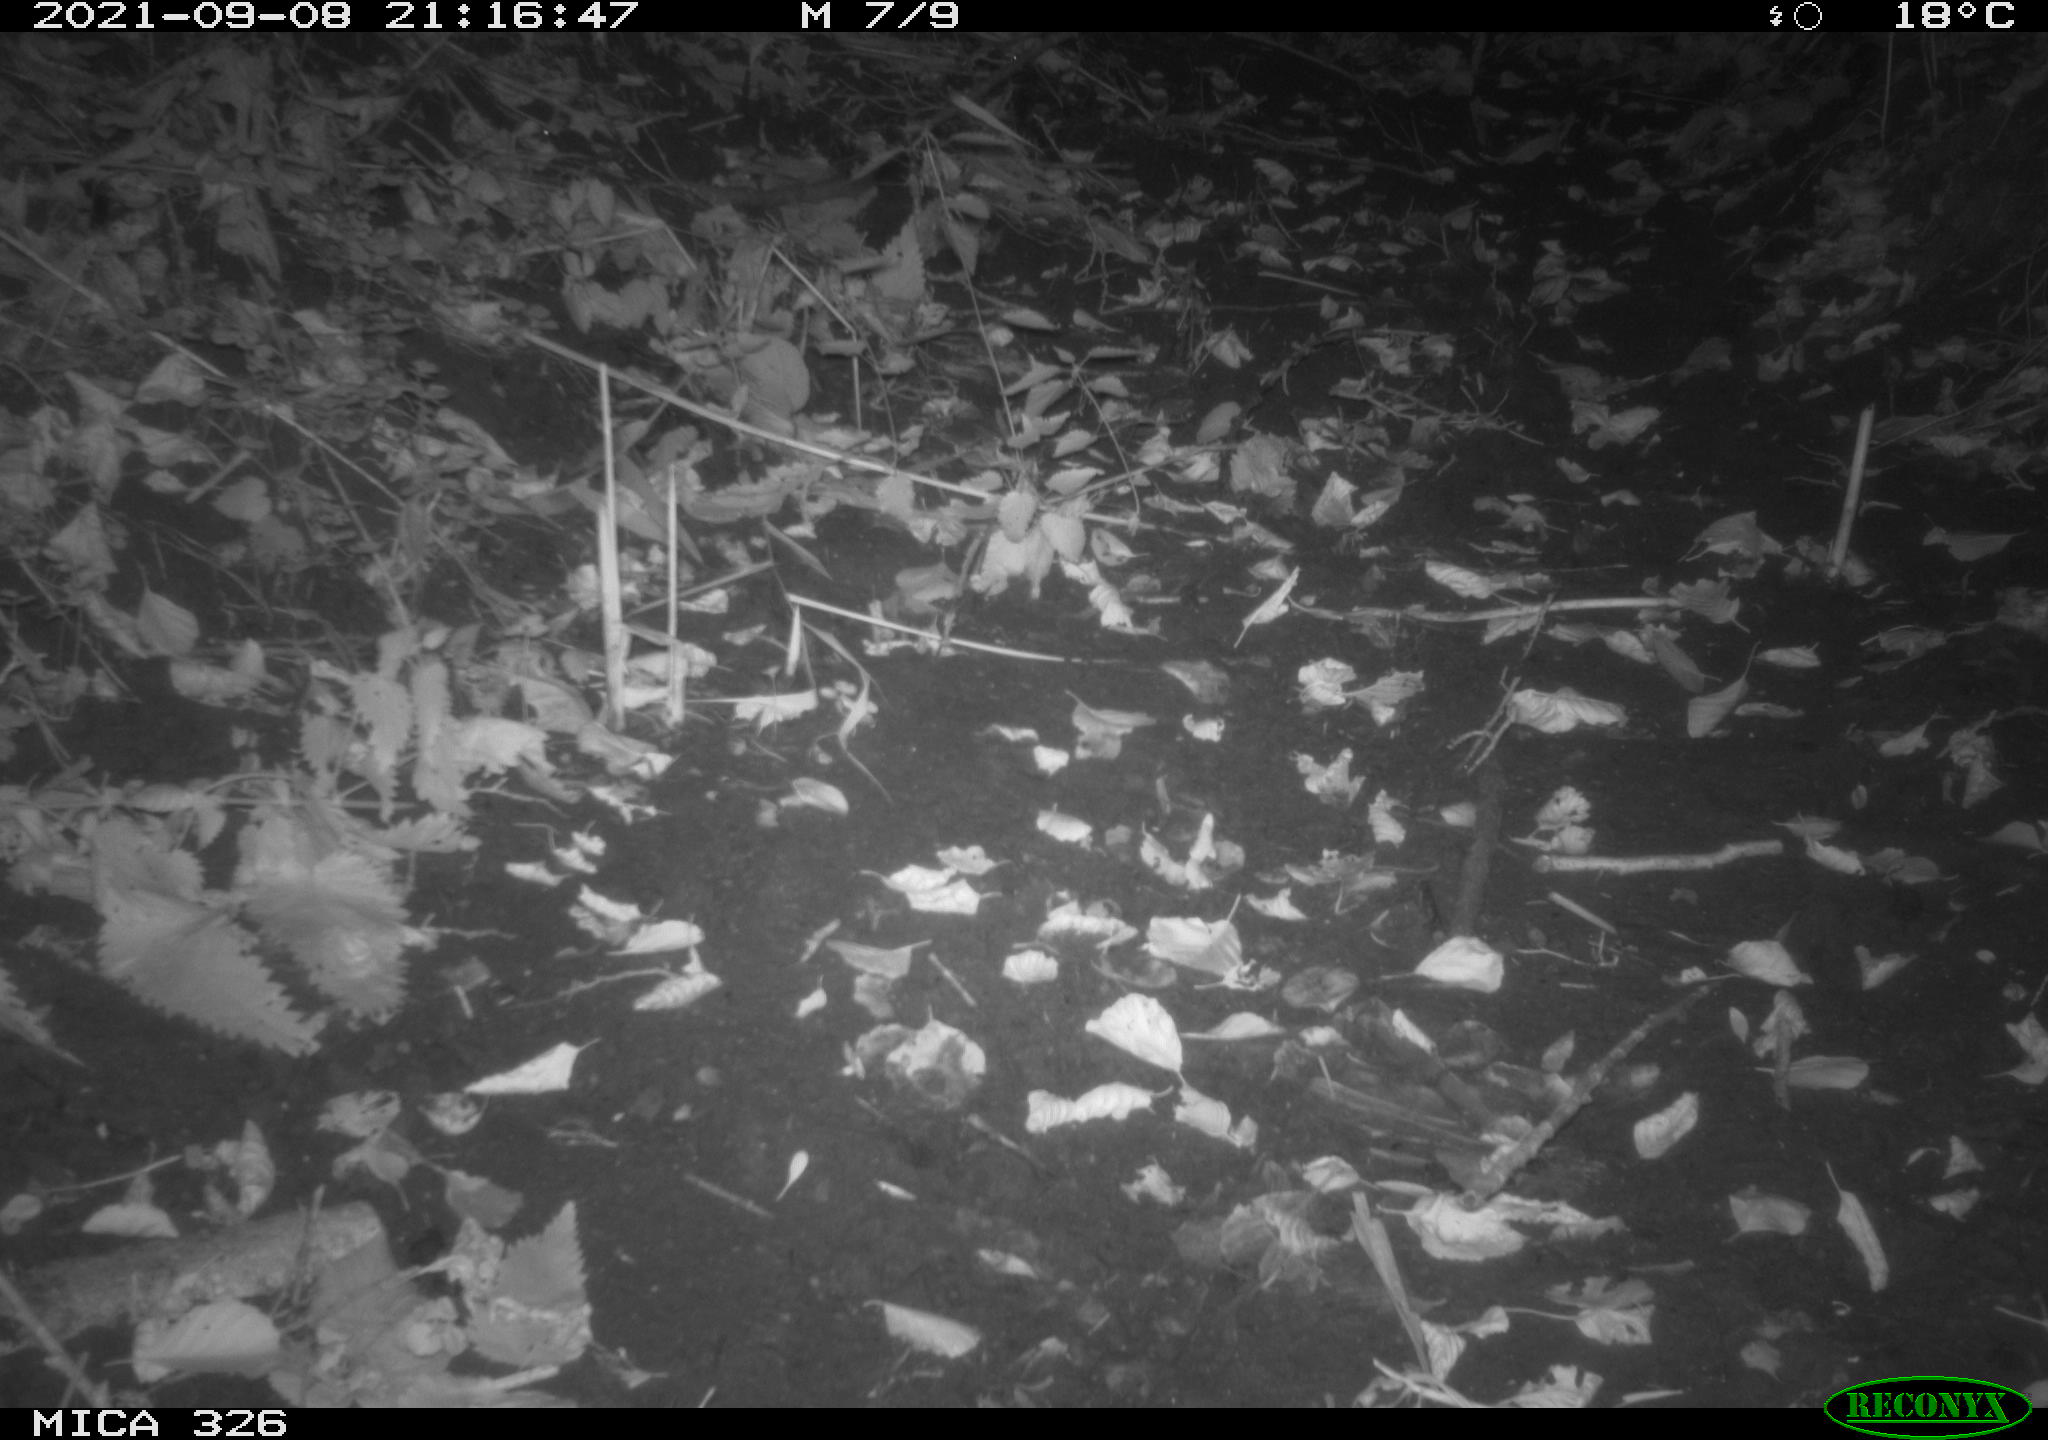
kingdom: Animalia
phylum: Chordata
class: Mammalia
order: Rodentia
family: Muridae
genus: Rattus
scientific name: Rattus norvegicus
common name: Brown rat
